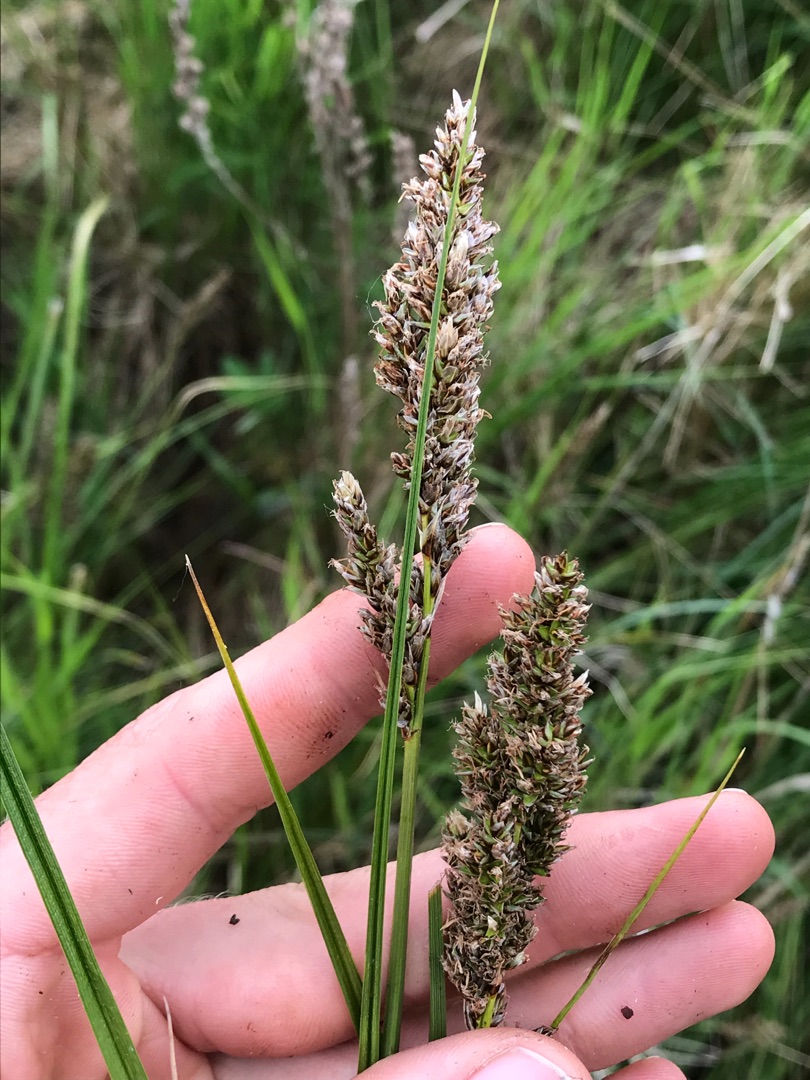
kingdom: Plantae
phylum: Tracheophyta
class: Liliopsida
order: Poales
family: Cyperaceae
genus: Carex
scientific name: Carex paniculata
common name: Top-star
